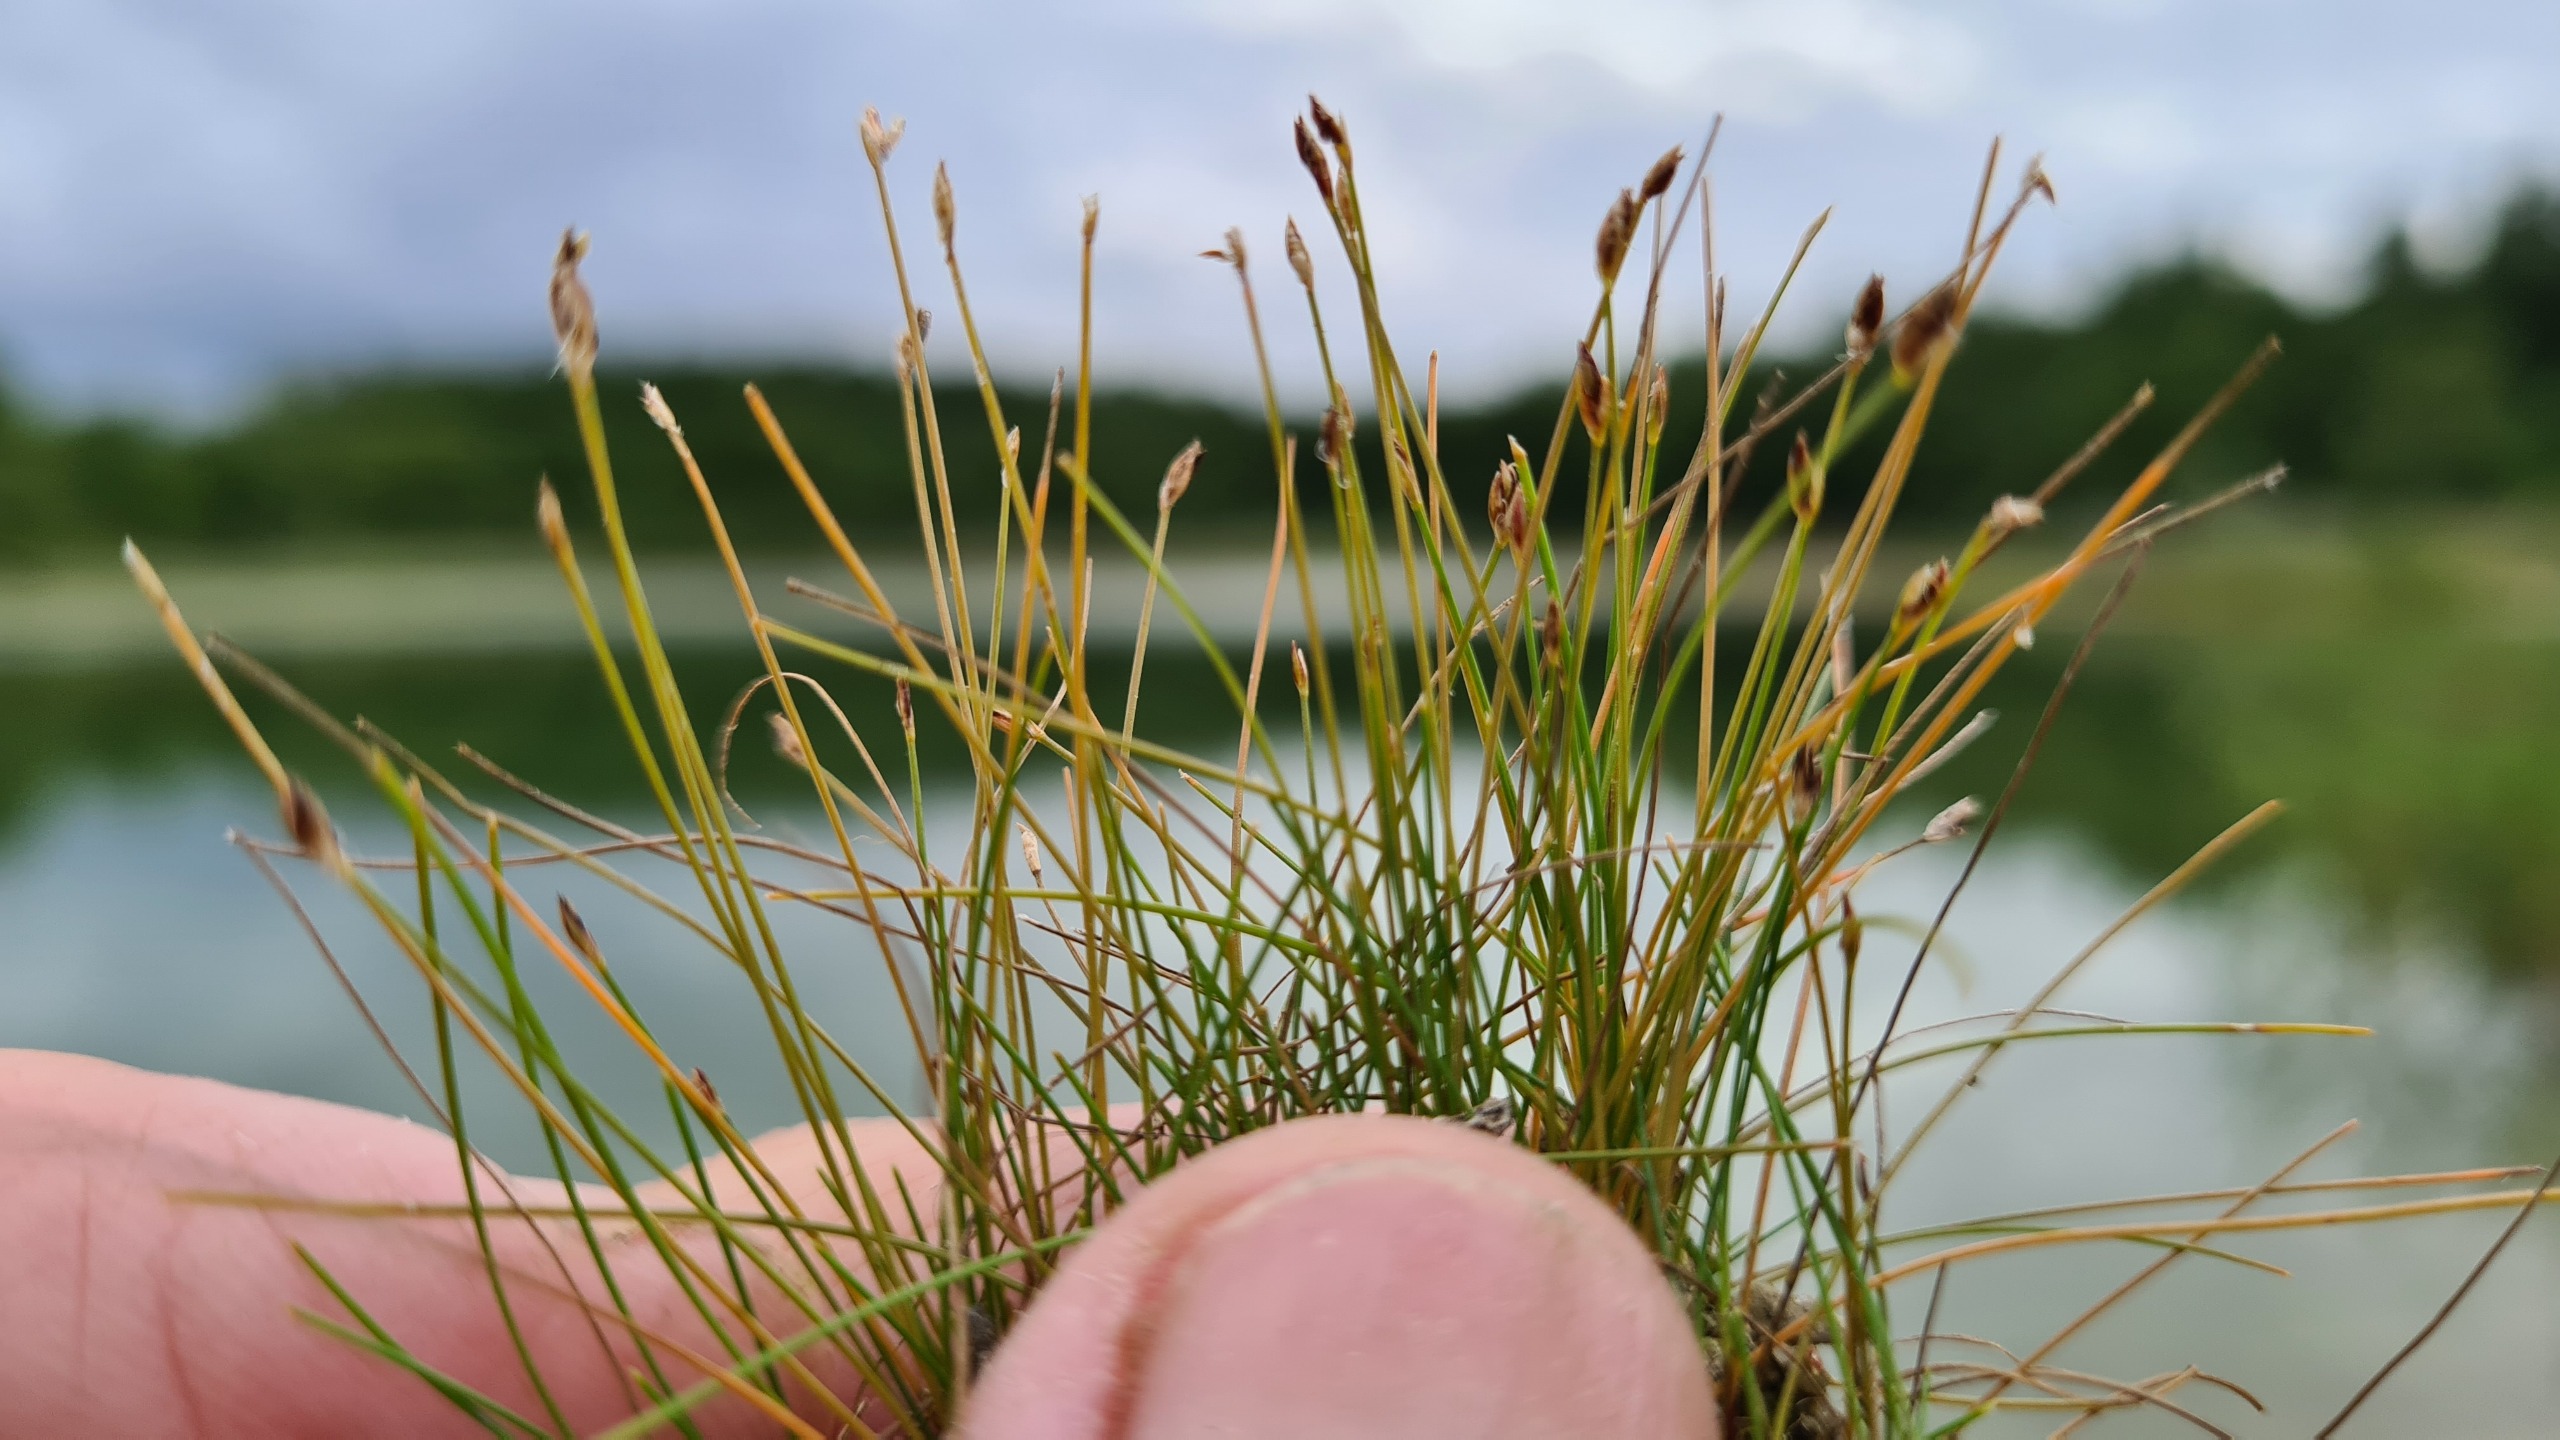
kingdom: Plantae
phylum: Tracheophyta
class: Liliopsida
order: Poales
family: Cyperaceae
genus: Eleocharis
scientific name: Eleocharis acicularis
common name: Nåle-sumpstrå
